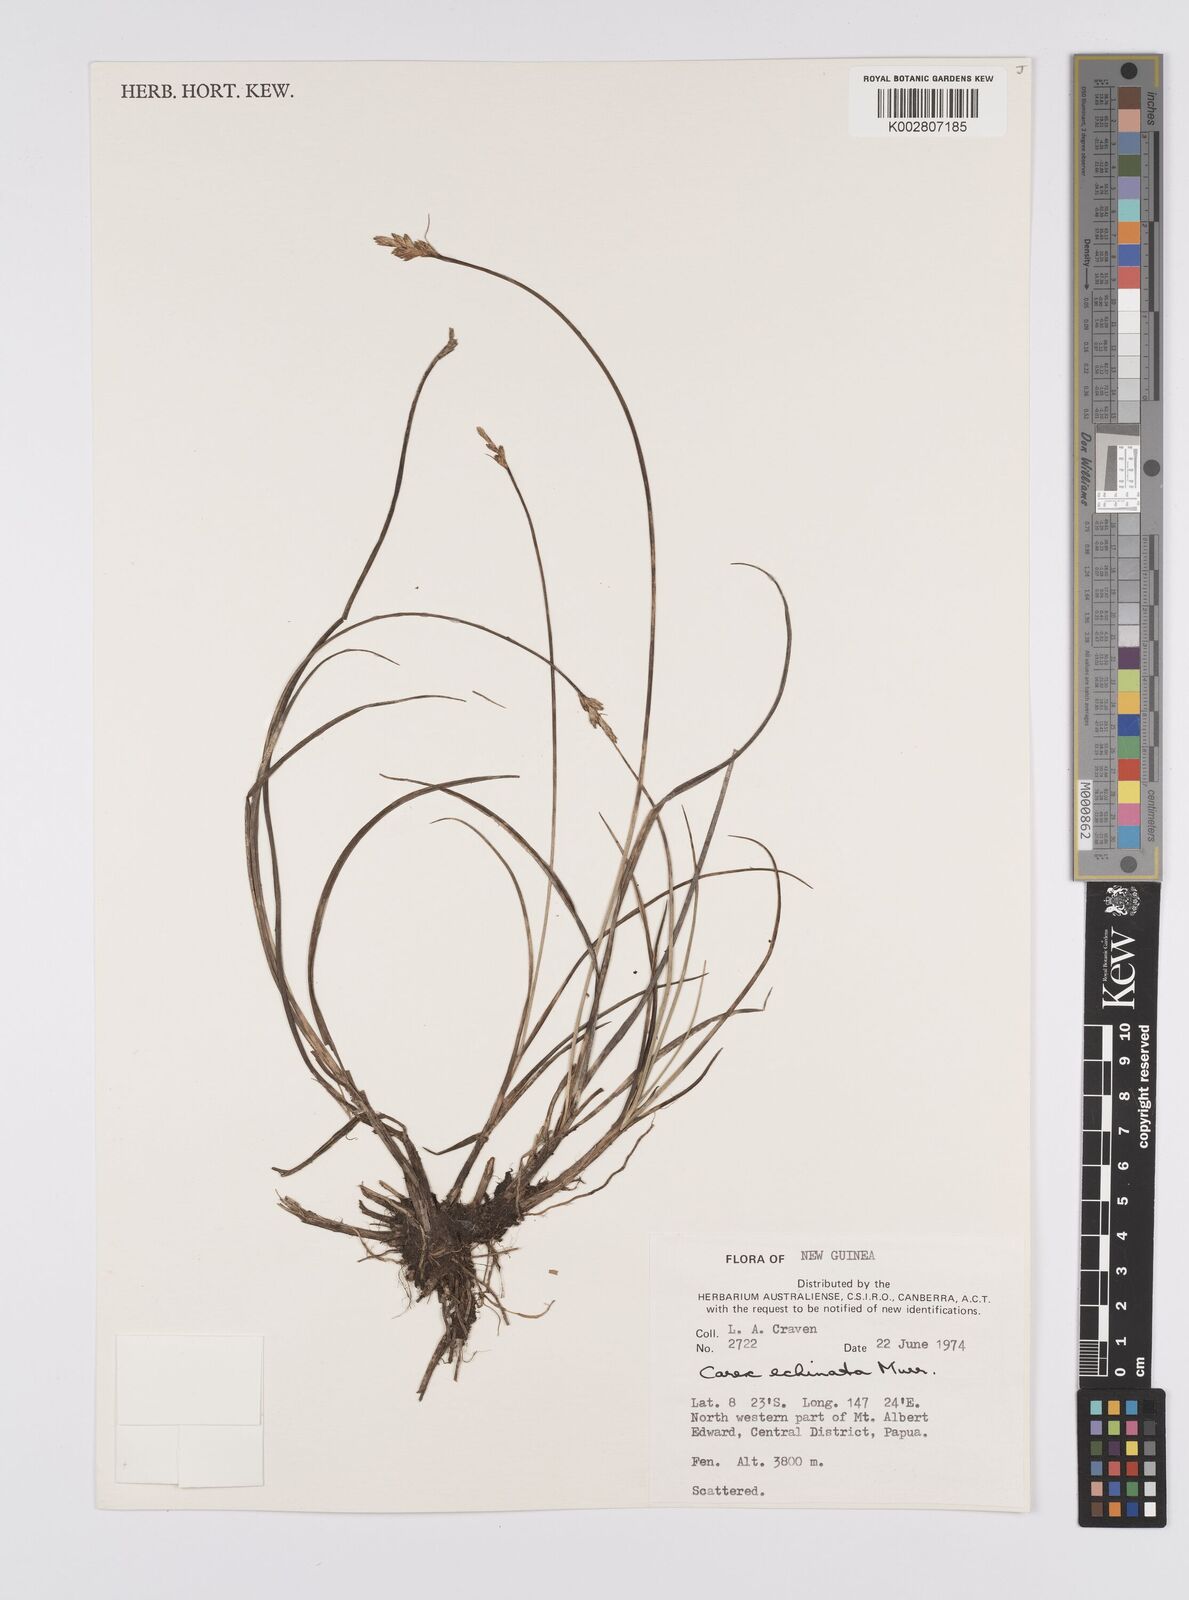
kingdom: Plantae
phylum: Tracheophyta
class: Liliopsida
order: Poales
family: Cyperaceae
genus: Carex
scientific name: Carex echinata
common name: Star sedge
